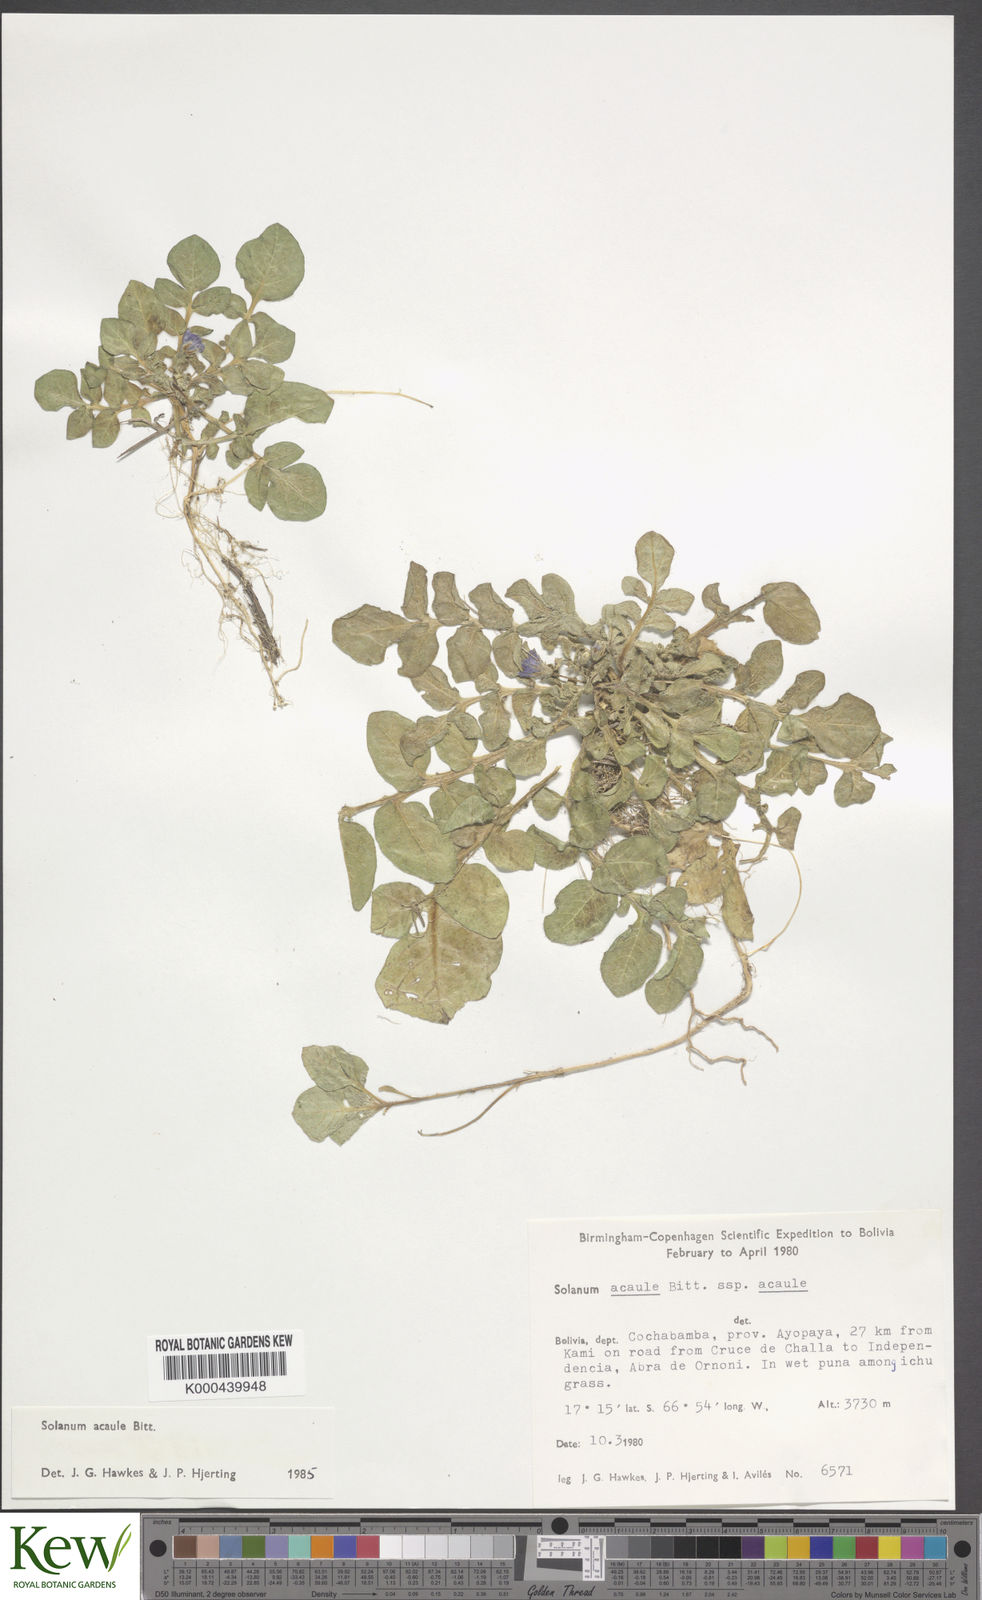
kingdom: Plantae
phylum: Tracheophyta
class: Magnoliopsida
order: Solanales
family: Solanaceae
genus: Solanum
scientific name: Solanum acaule
